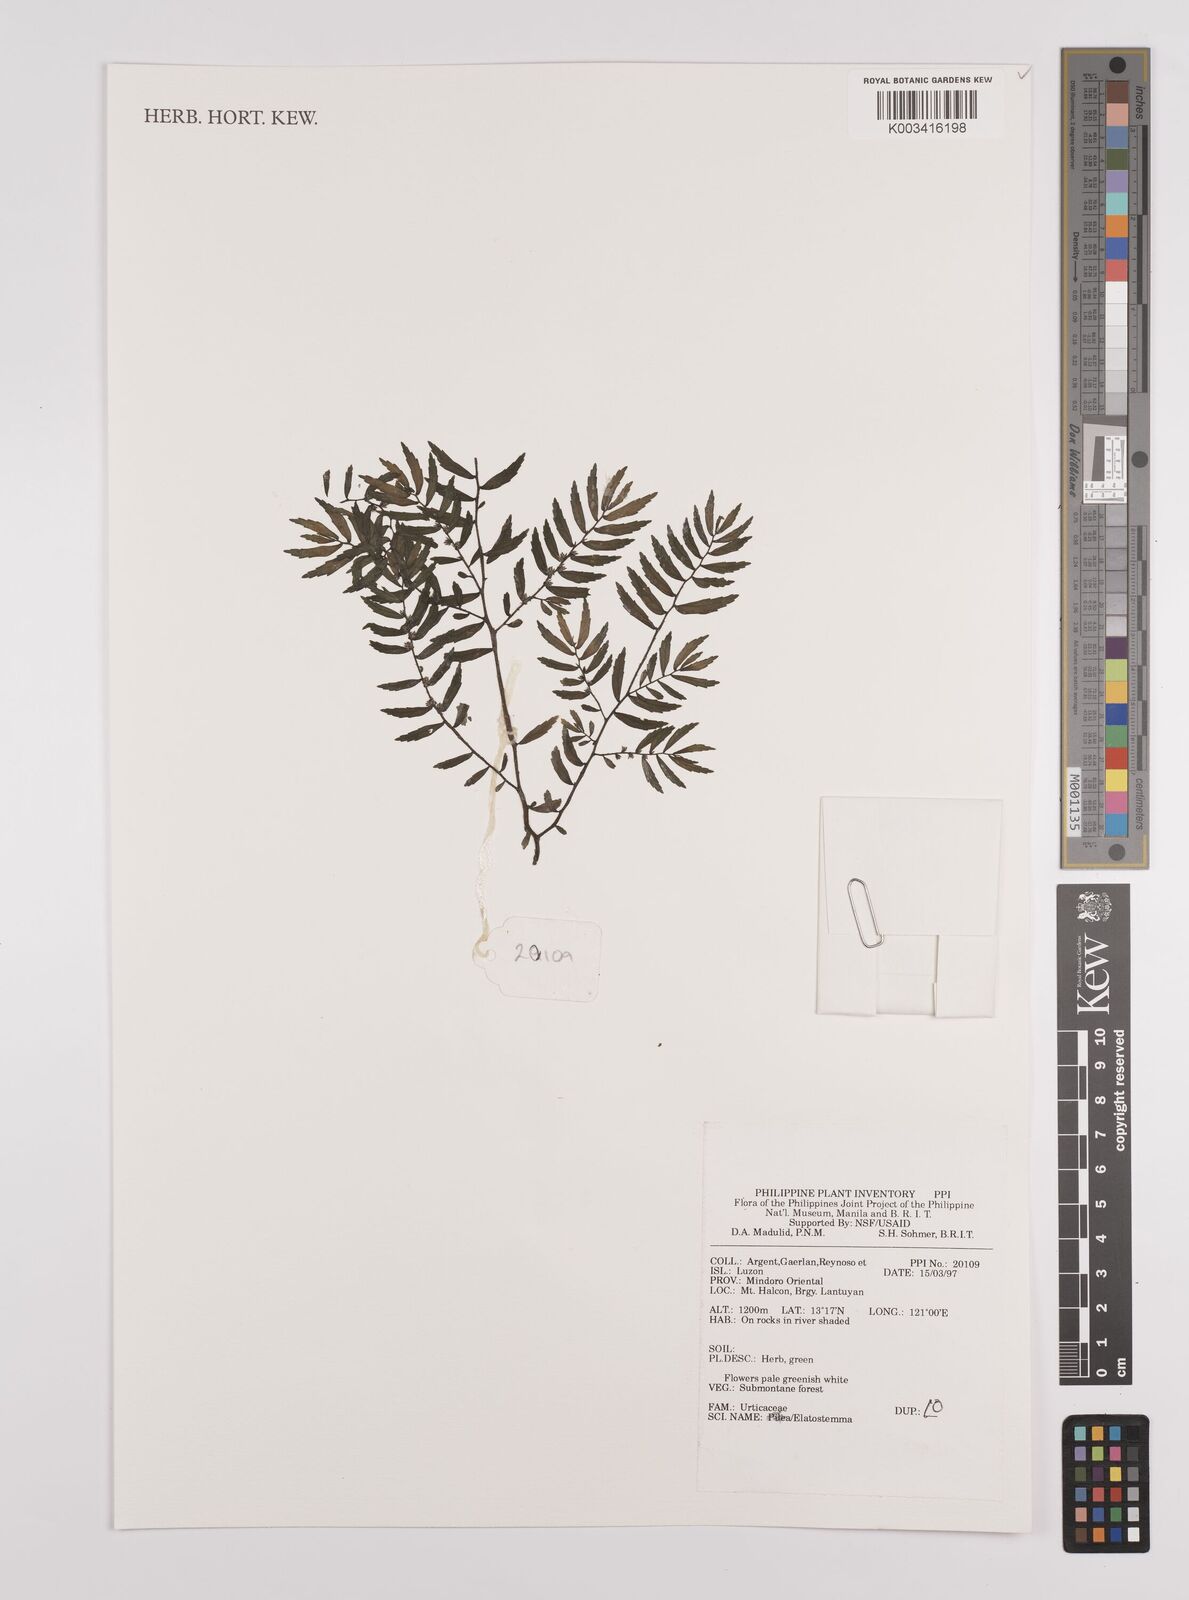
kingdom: Plantae
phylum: Tracheophyta
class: Magnoliopsida
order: Rosales
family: Urticaceae
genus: Elatostema
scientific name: Elatostema
